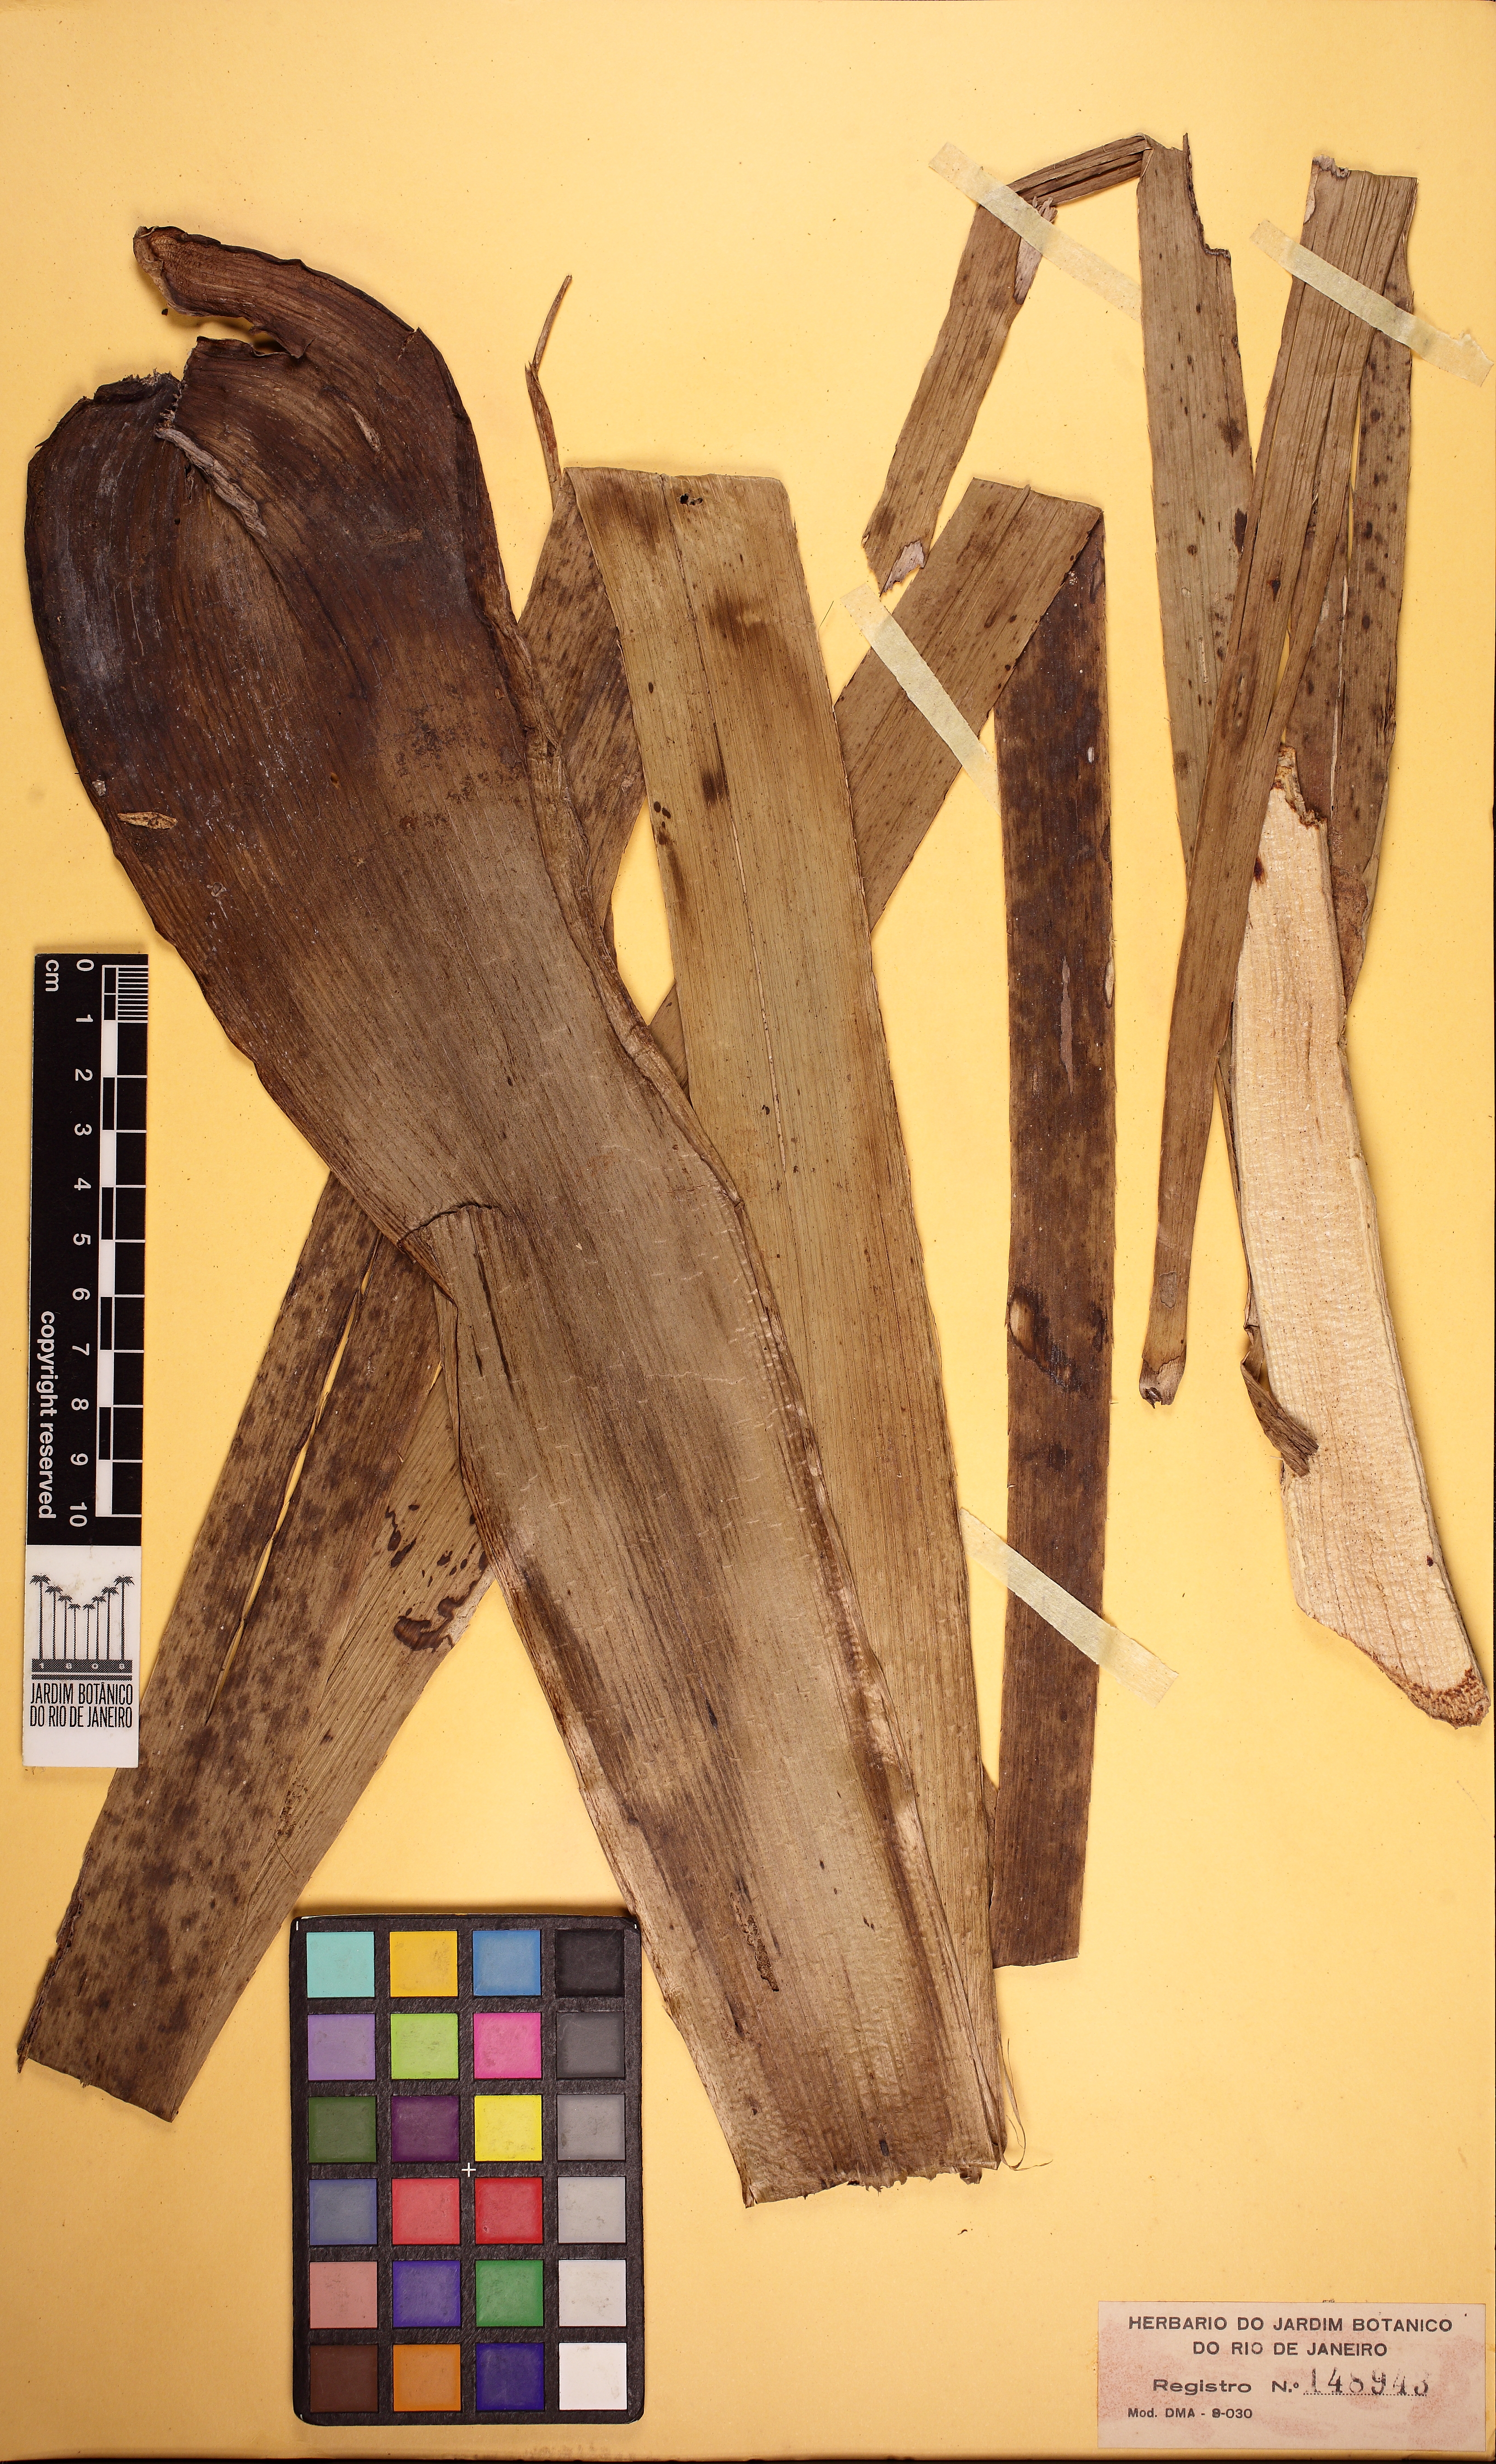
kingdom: Plantae
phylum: Tracheophyta
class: Magnoliopsida
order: Apiales
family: Apiaceae
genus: Eryngium
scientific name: Eryngium pandanifolium
